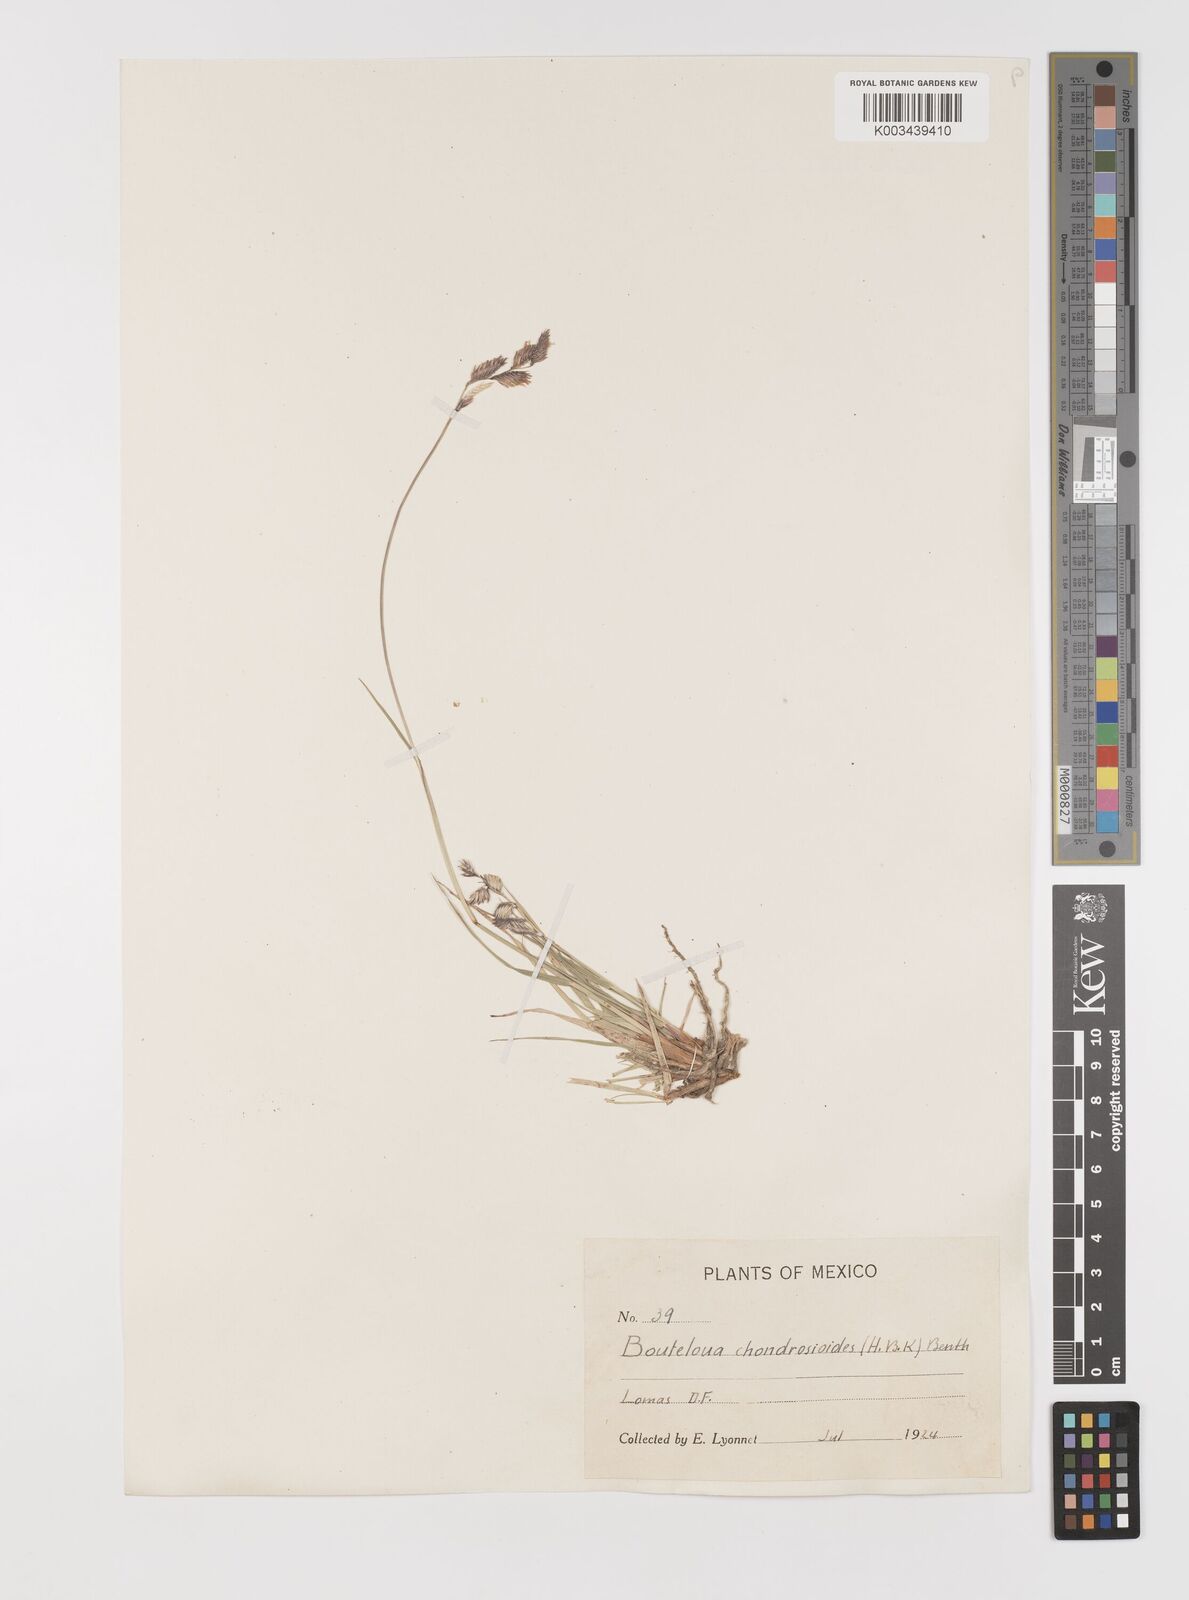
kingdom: Plantae
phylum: Tracheophyta
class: Liliopsida
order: Poales
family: Poaceae
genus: Bouteloua
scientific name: Bouteloua chondrosioides
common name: Sprucetop grama
